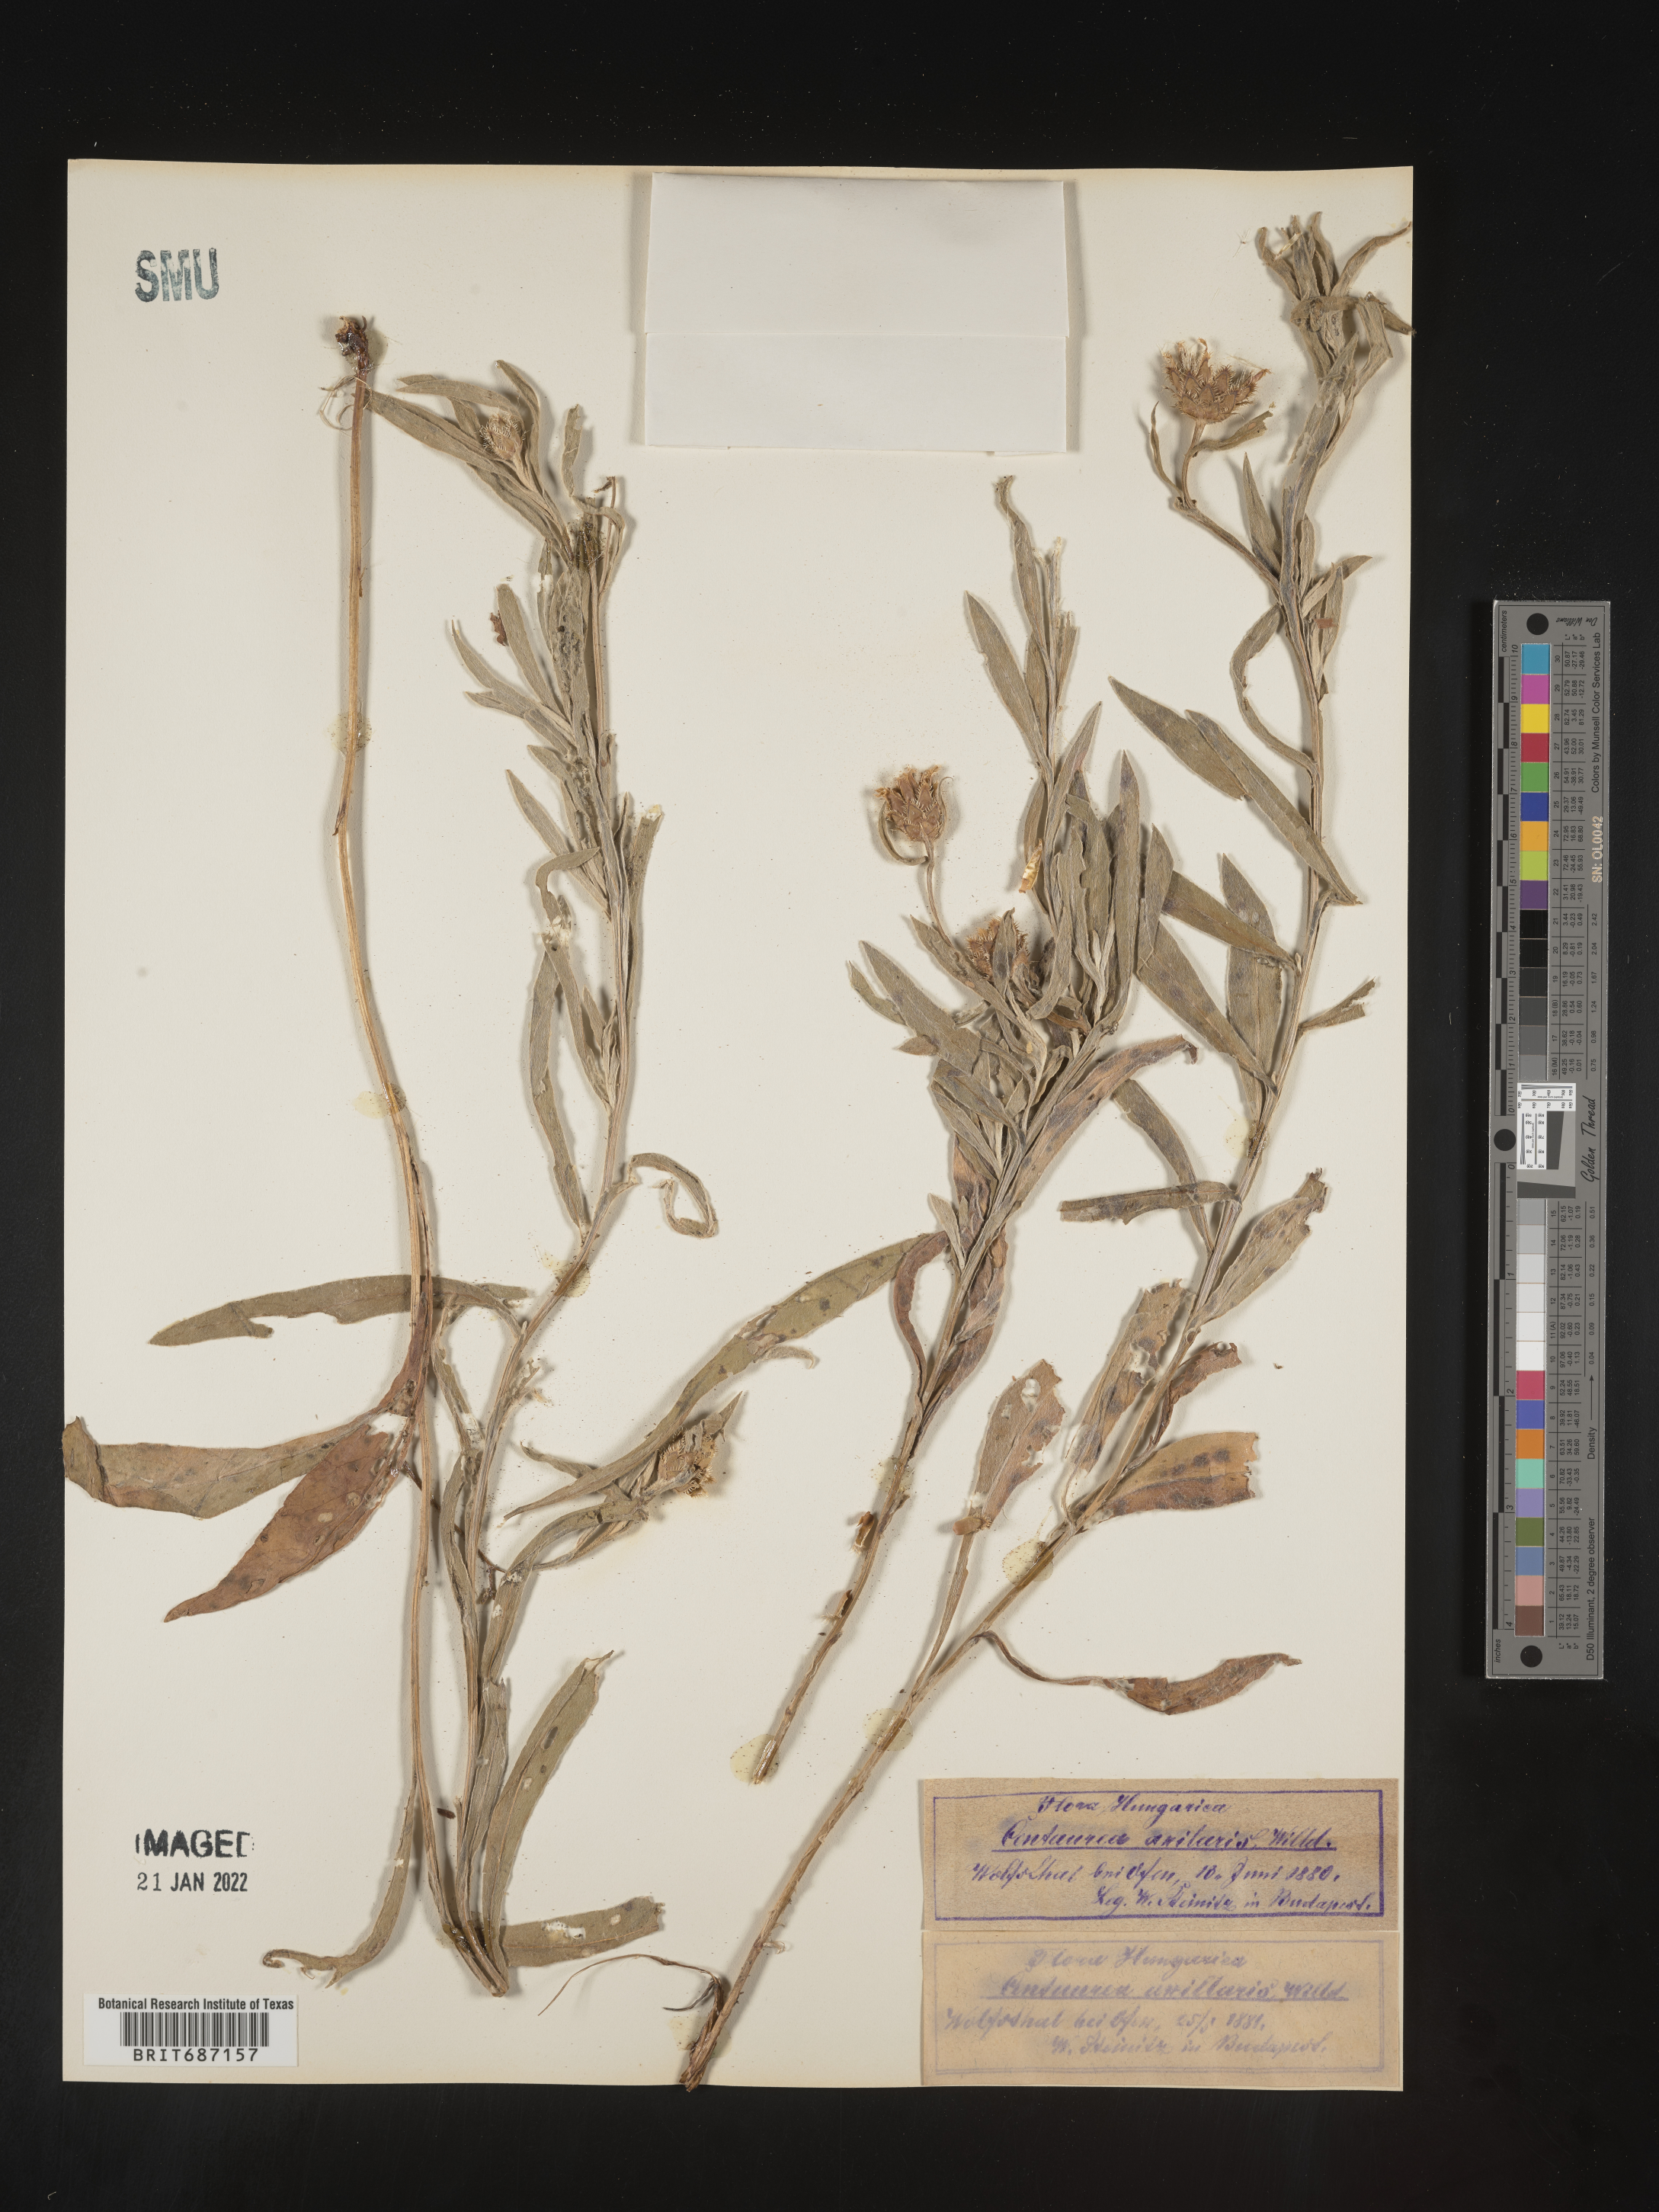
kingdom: Plantae
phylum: Tracheophyta
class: Magnoliopsida
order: Asterales
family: Asteraceae
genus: Centaurea
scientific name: Centaurea
